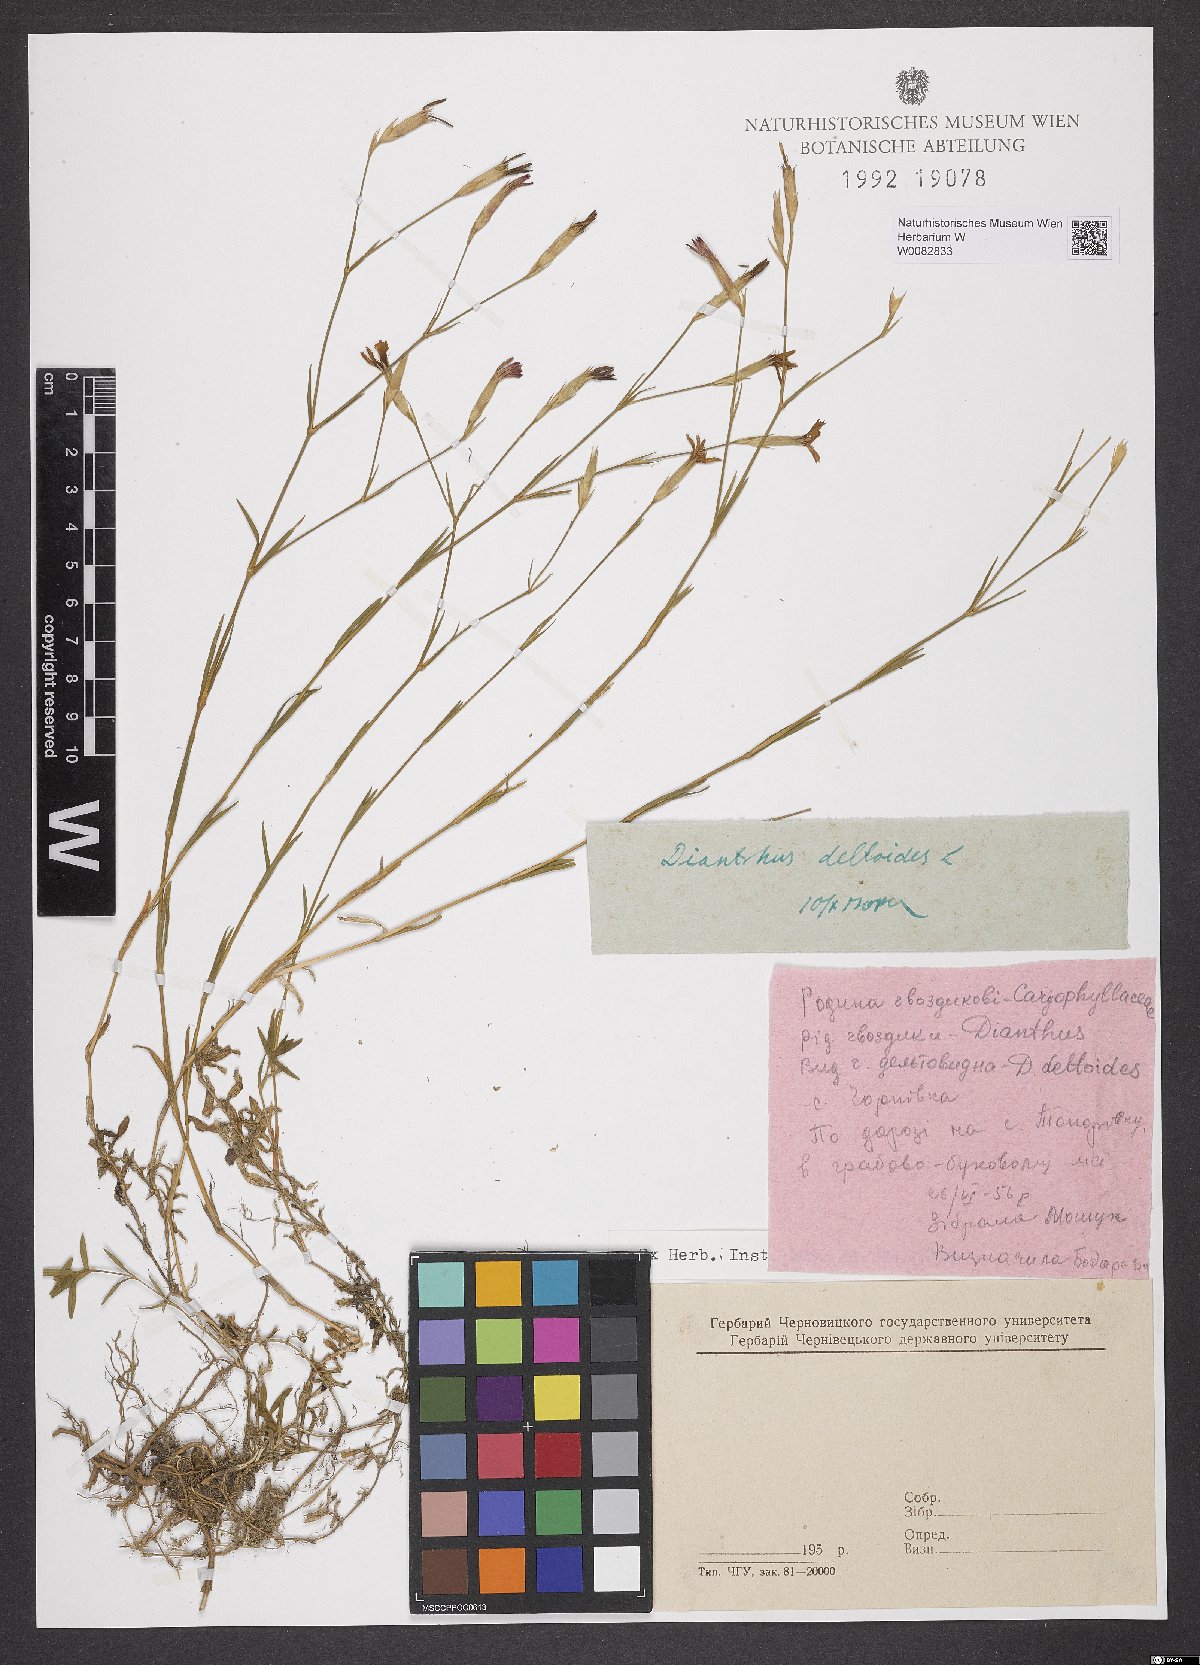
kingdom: Plantae
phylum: Tracheophyta
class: Magnoliopsida
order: Caryophyllales
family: Caryophyllaceae
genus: Dianthus
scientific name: Dianthus deltoides
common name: Maiden pink
